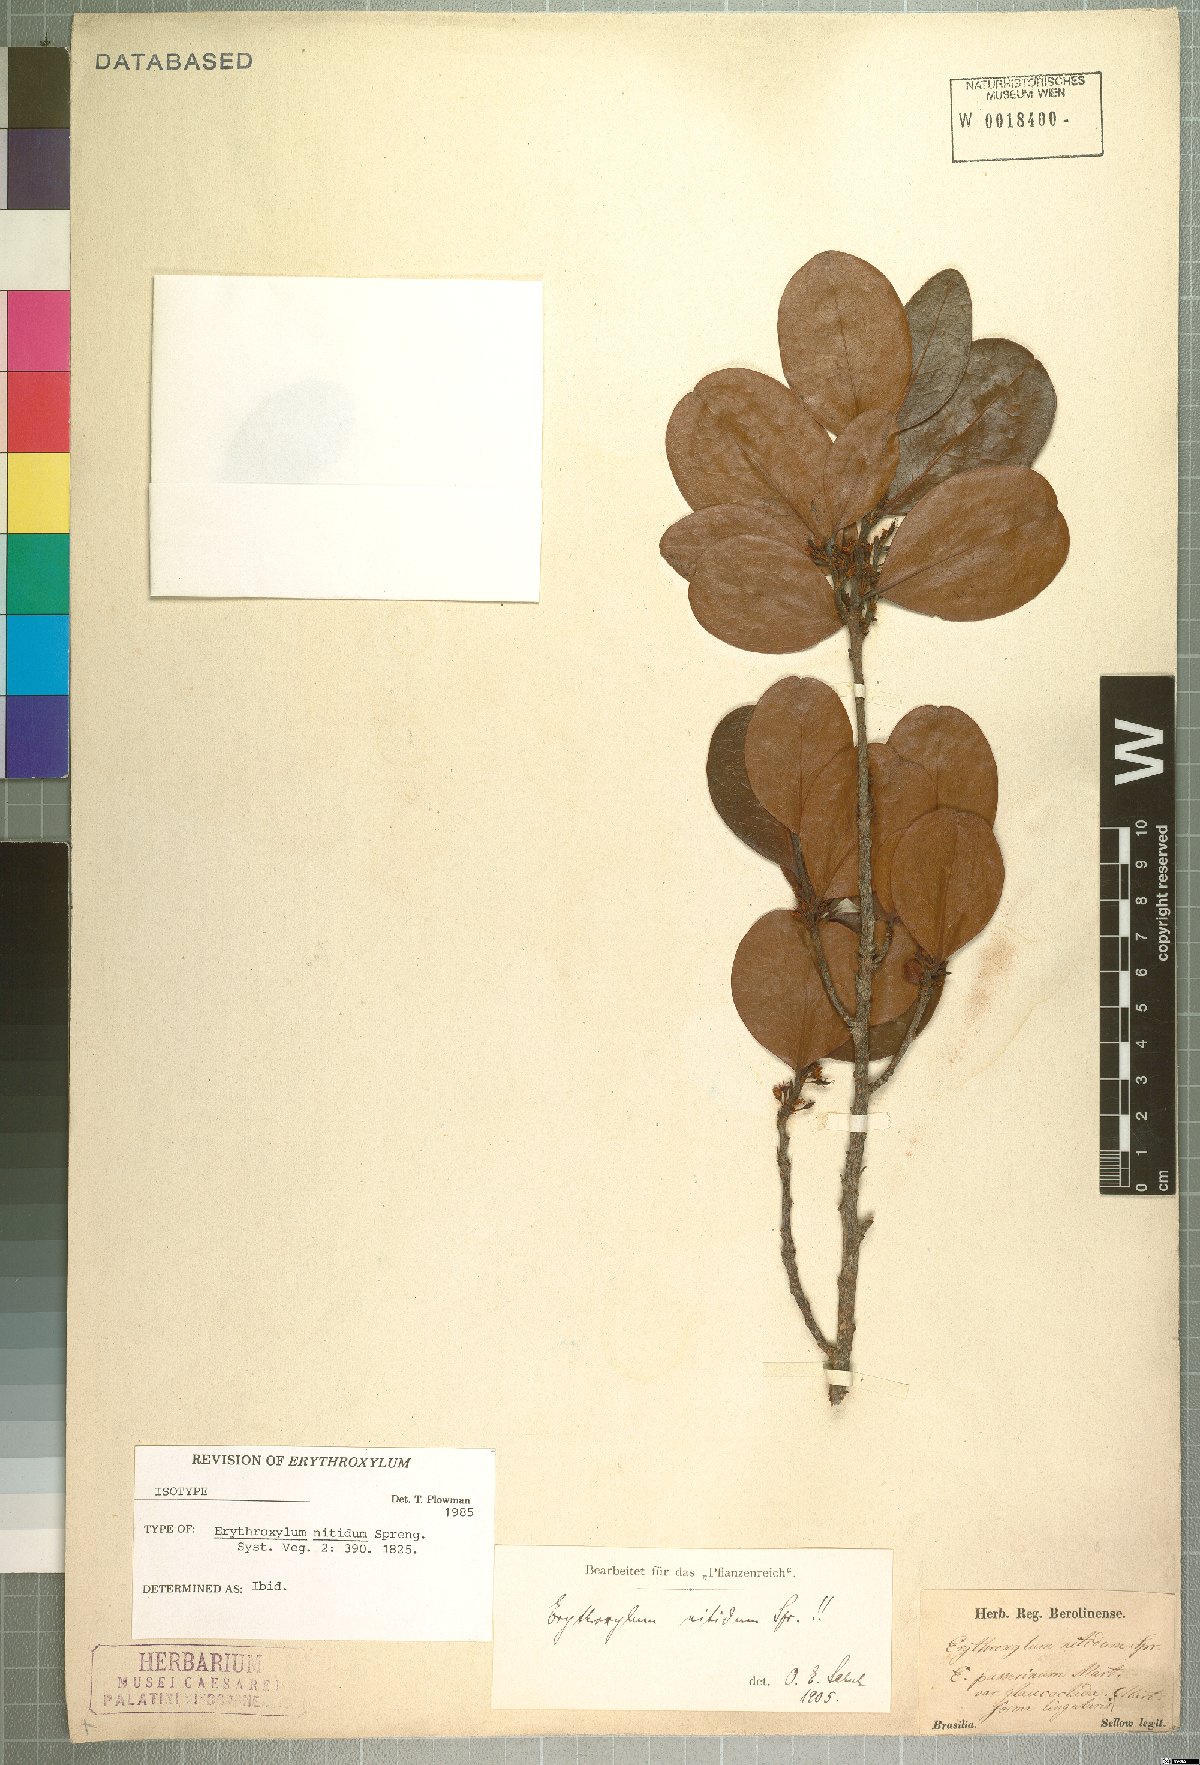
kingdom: Plantae
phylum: Tracheophyta
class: Magnoliopsida
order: Malpighiales
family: Erythroxylaceae
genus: Erythroxylum
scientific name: Erythroxylum deciduum
